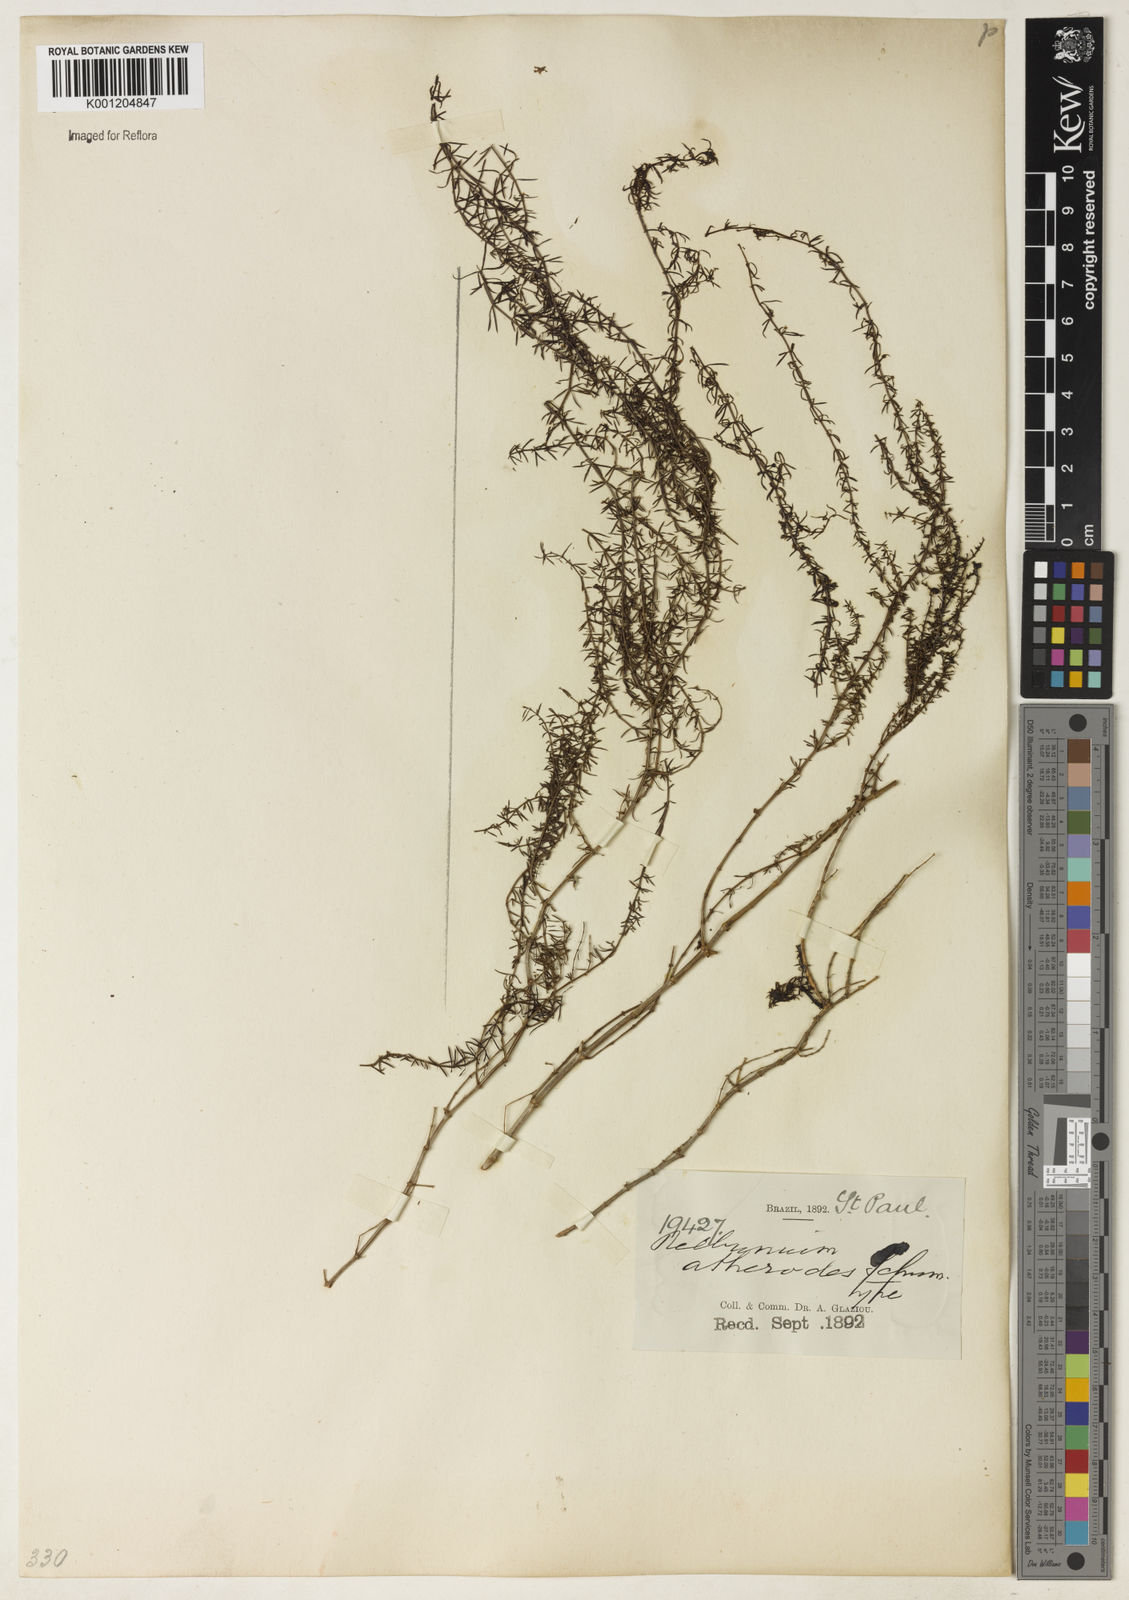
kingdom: Plantae
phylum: Tracheophyta
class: Magnoliopsida
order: Gentianales
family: Rubiaceae
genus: Galium
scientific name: Galium atherodes
